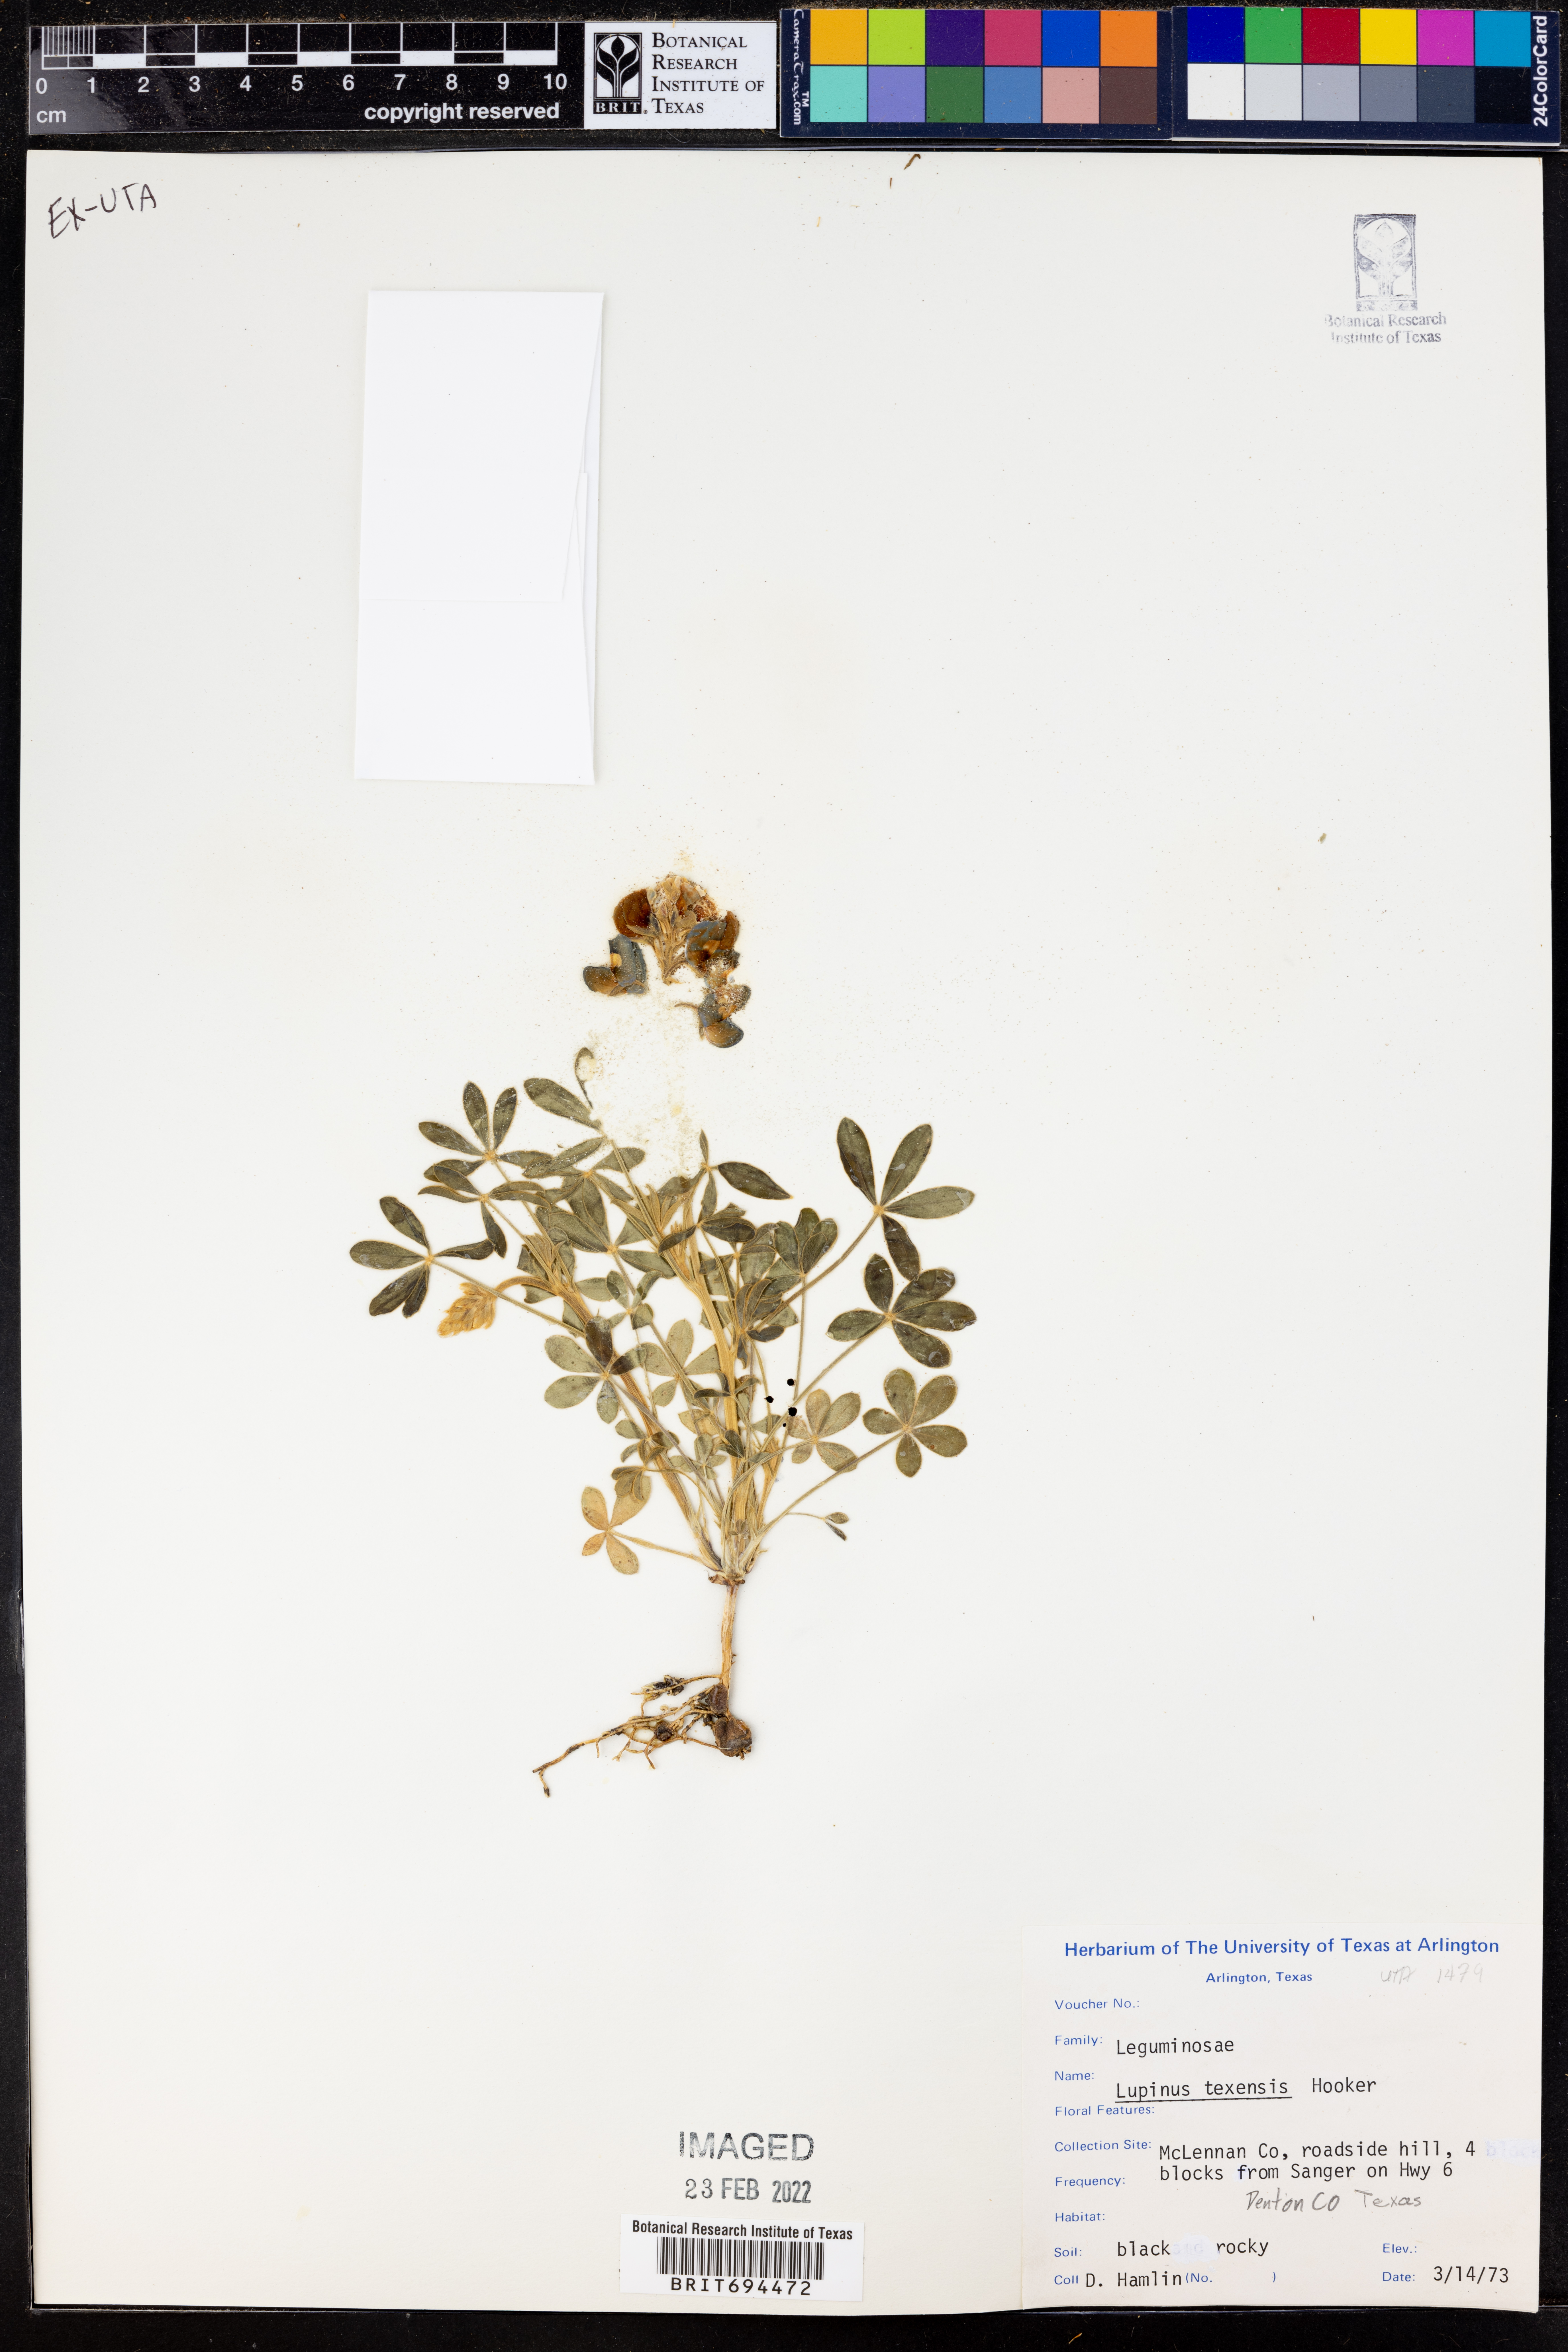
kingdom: Plantae
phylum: Tracheophyta
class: Magnoliopsida
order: Fabales
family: Fabaceae
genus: Lupinus
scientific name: Lupinus texensis
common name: Texas bluebonnet
